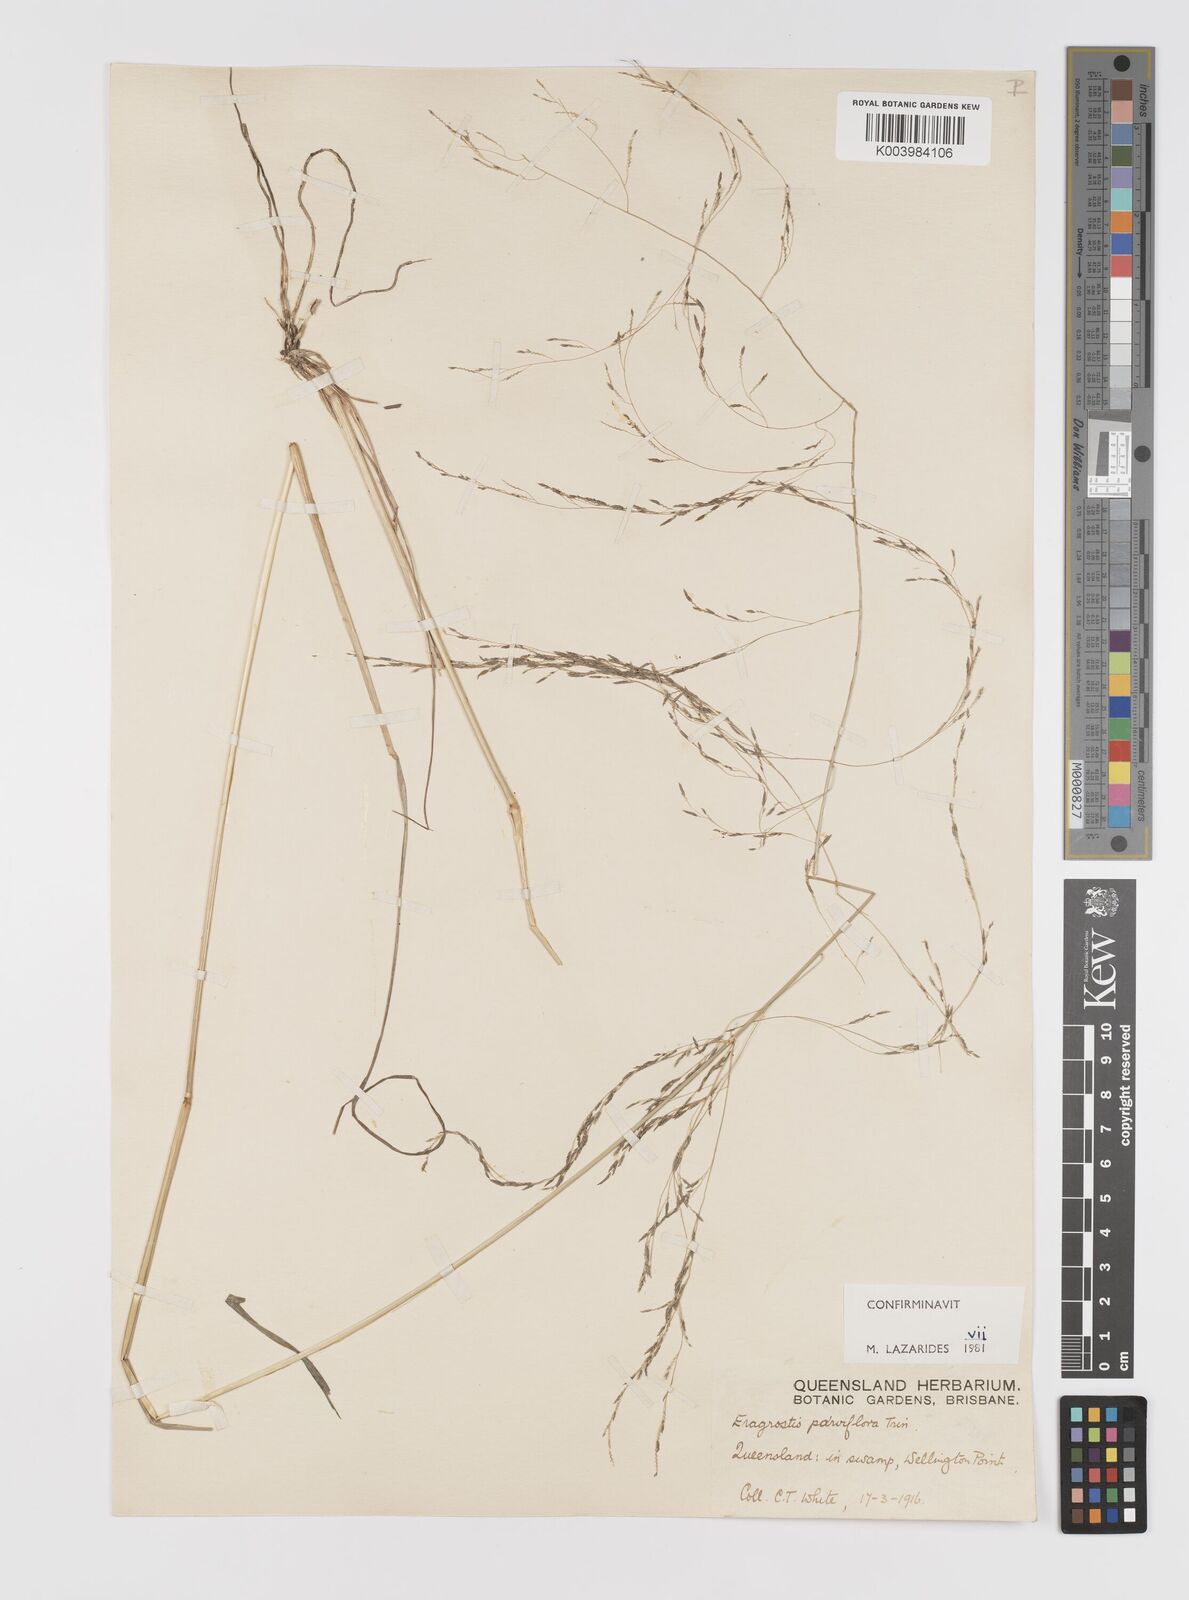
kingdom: Plantae
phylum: Tracheophyta
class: Liliopsida
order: Poales
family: Poaceae
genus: Eragrostis
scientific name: Eragrostis parviflora
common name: Weeping love-grass
